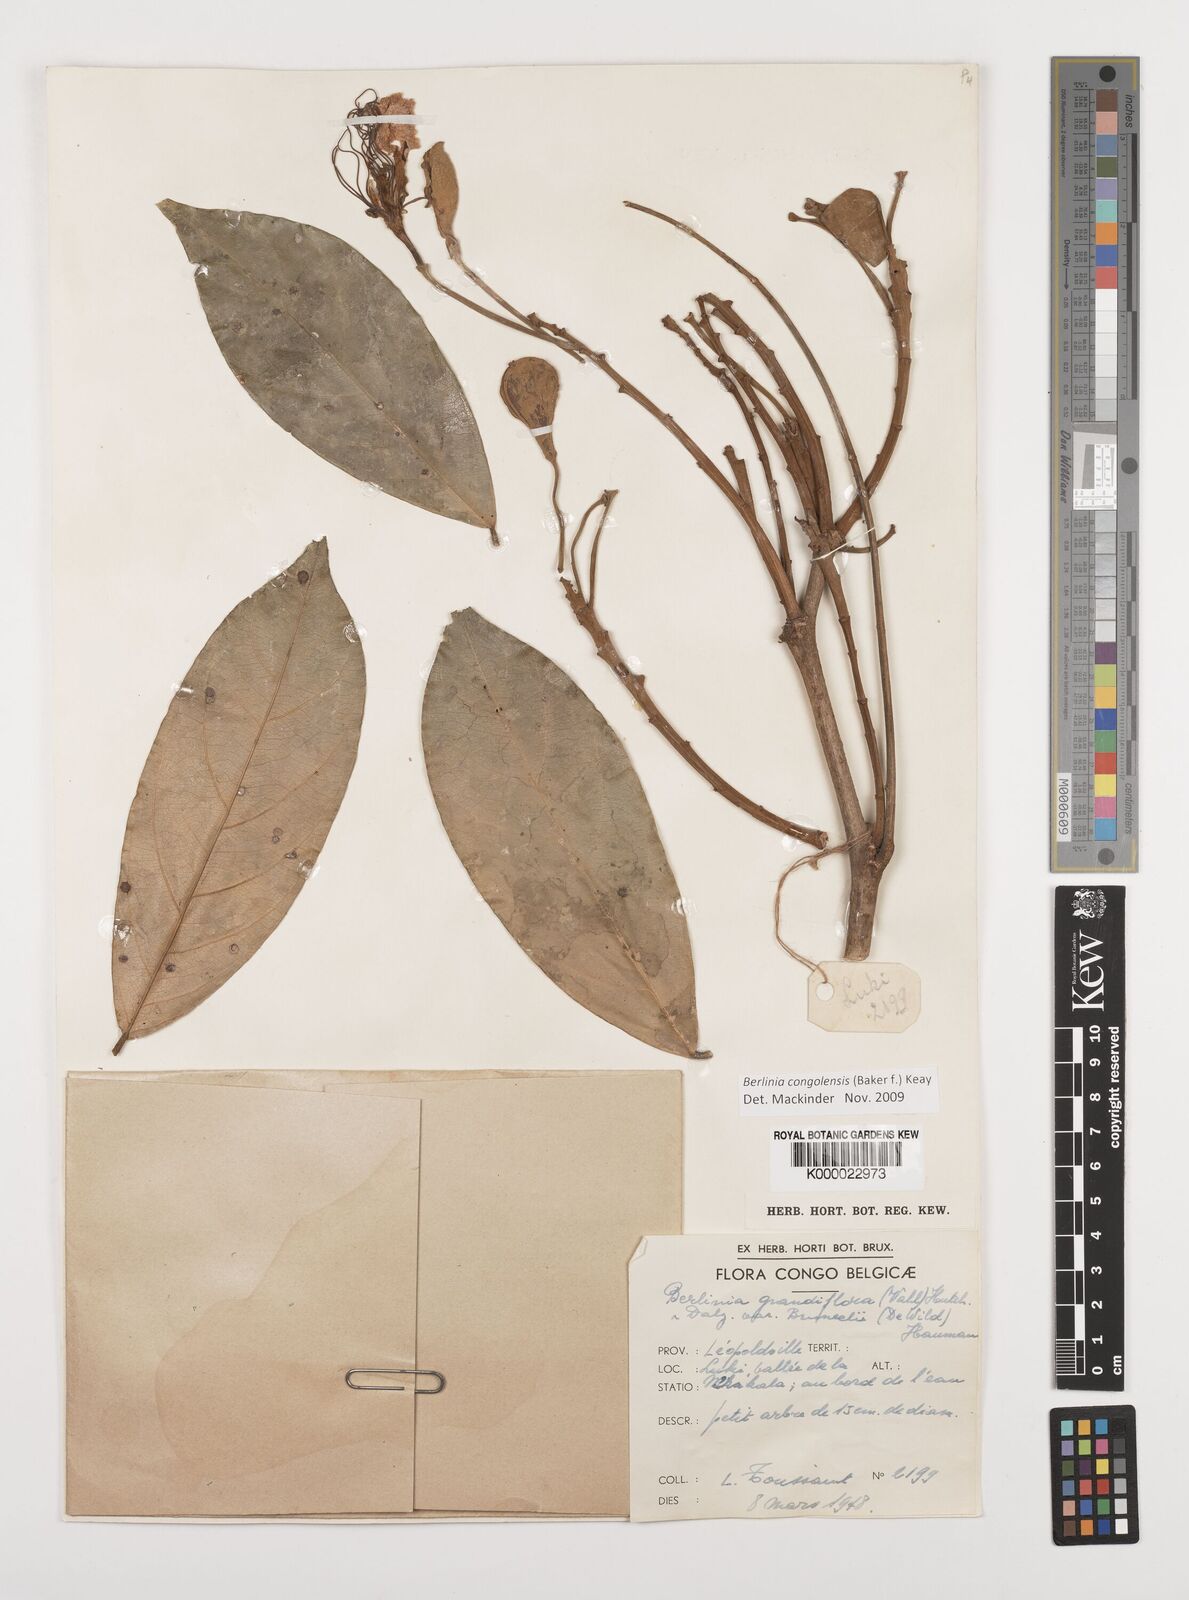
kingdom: Plantae
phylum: Tracheophyta
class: Magnoliopsida
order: Fabales
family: Fabaceae
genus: Berlinia
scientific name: Berlinia congolensis
